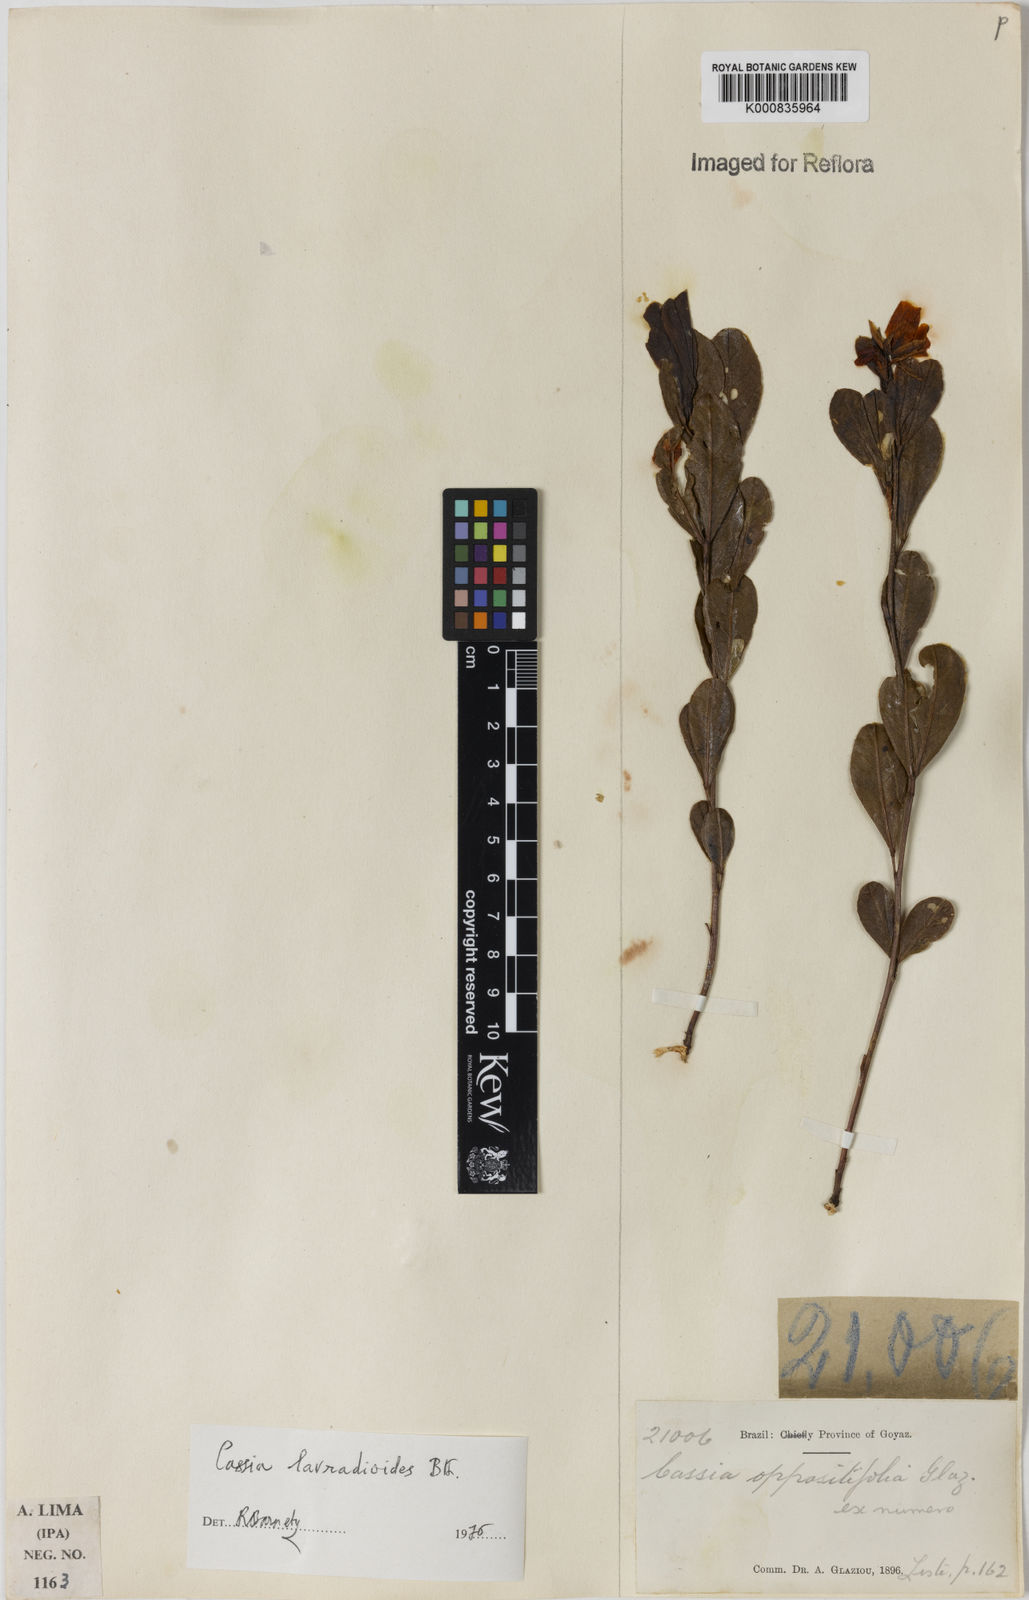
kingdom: Plantae
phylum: Tracheophyta
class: Magnoliopsida
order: Fabales
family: Fabaceae
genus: Chamaecrista
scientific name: Chamaecrista lavradioides
